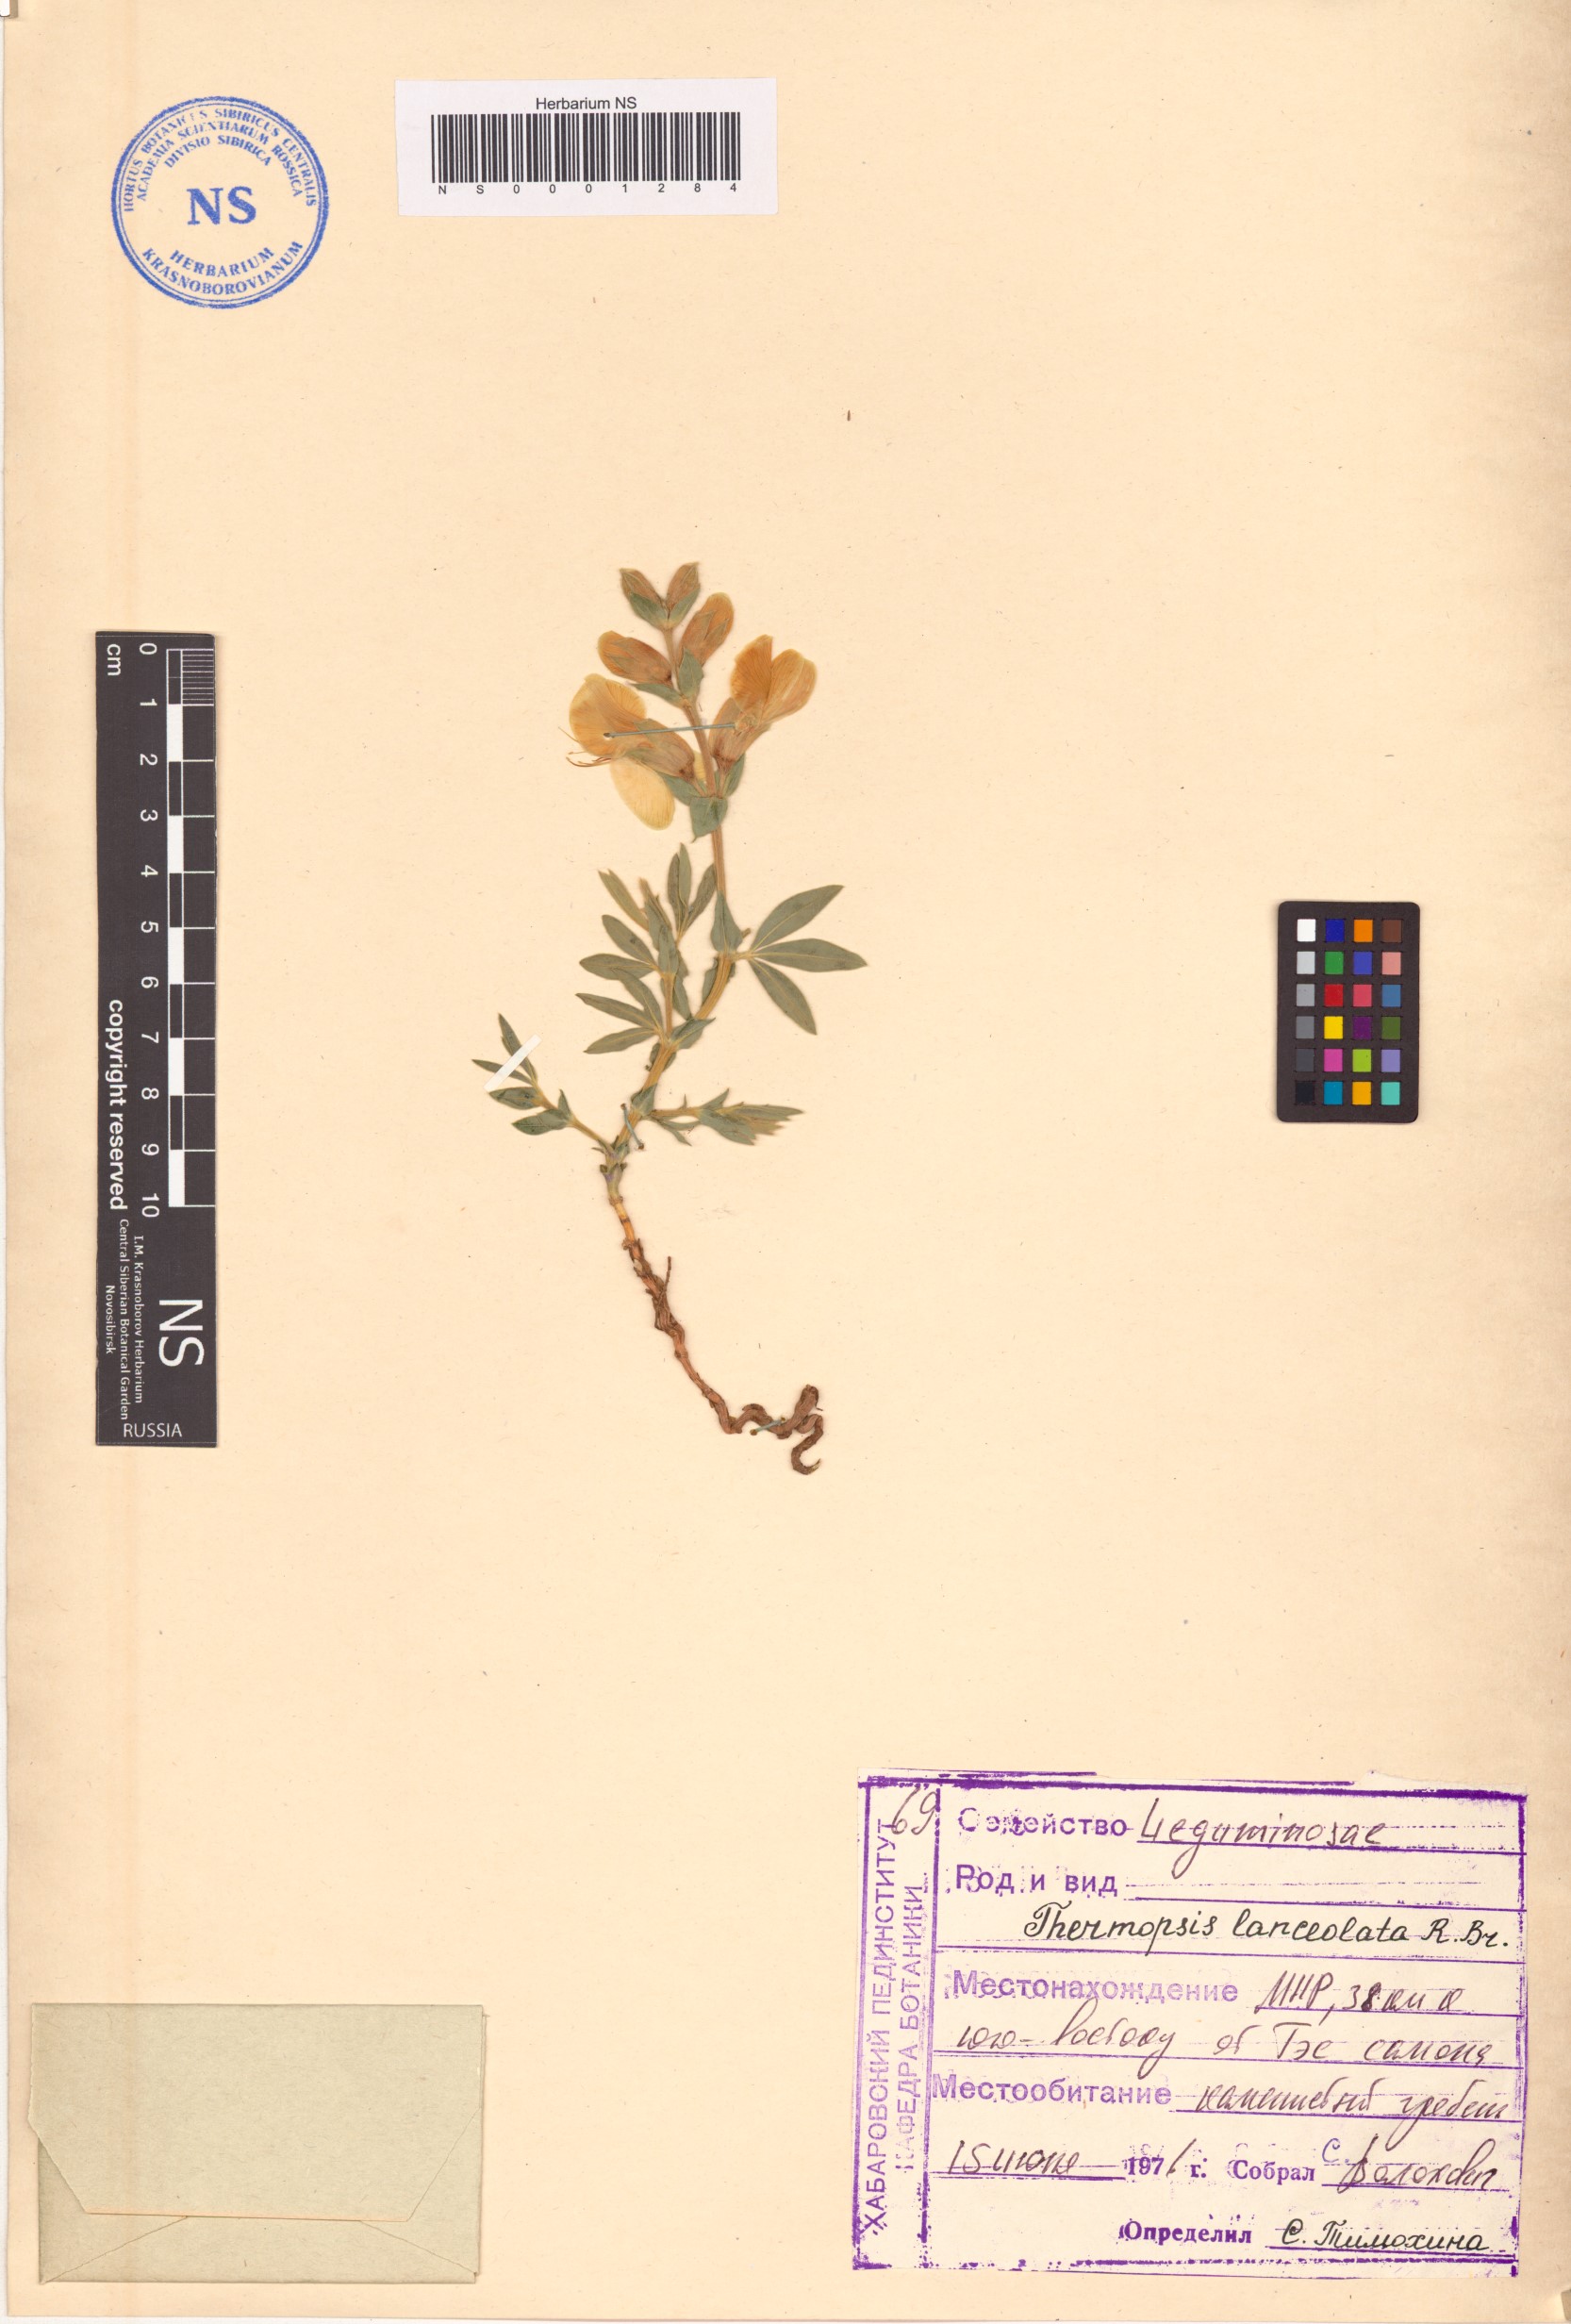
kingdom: Plantae
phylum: Tracheophyta
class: Magnoliopsida
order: Fabales
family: Fabaceae
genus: Thermopsis
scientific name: Thermopsis lanceolata
